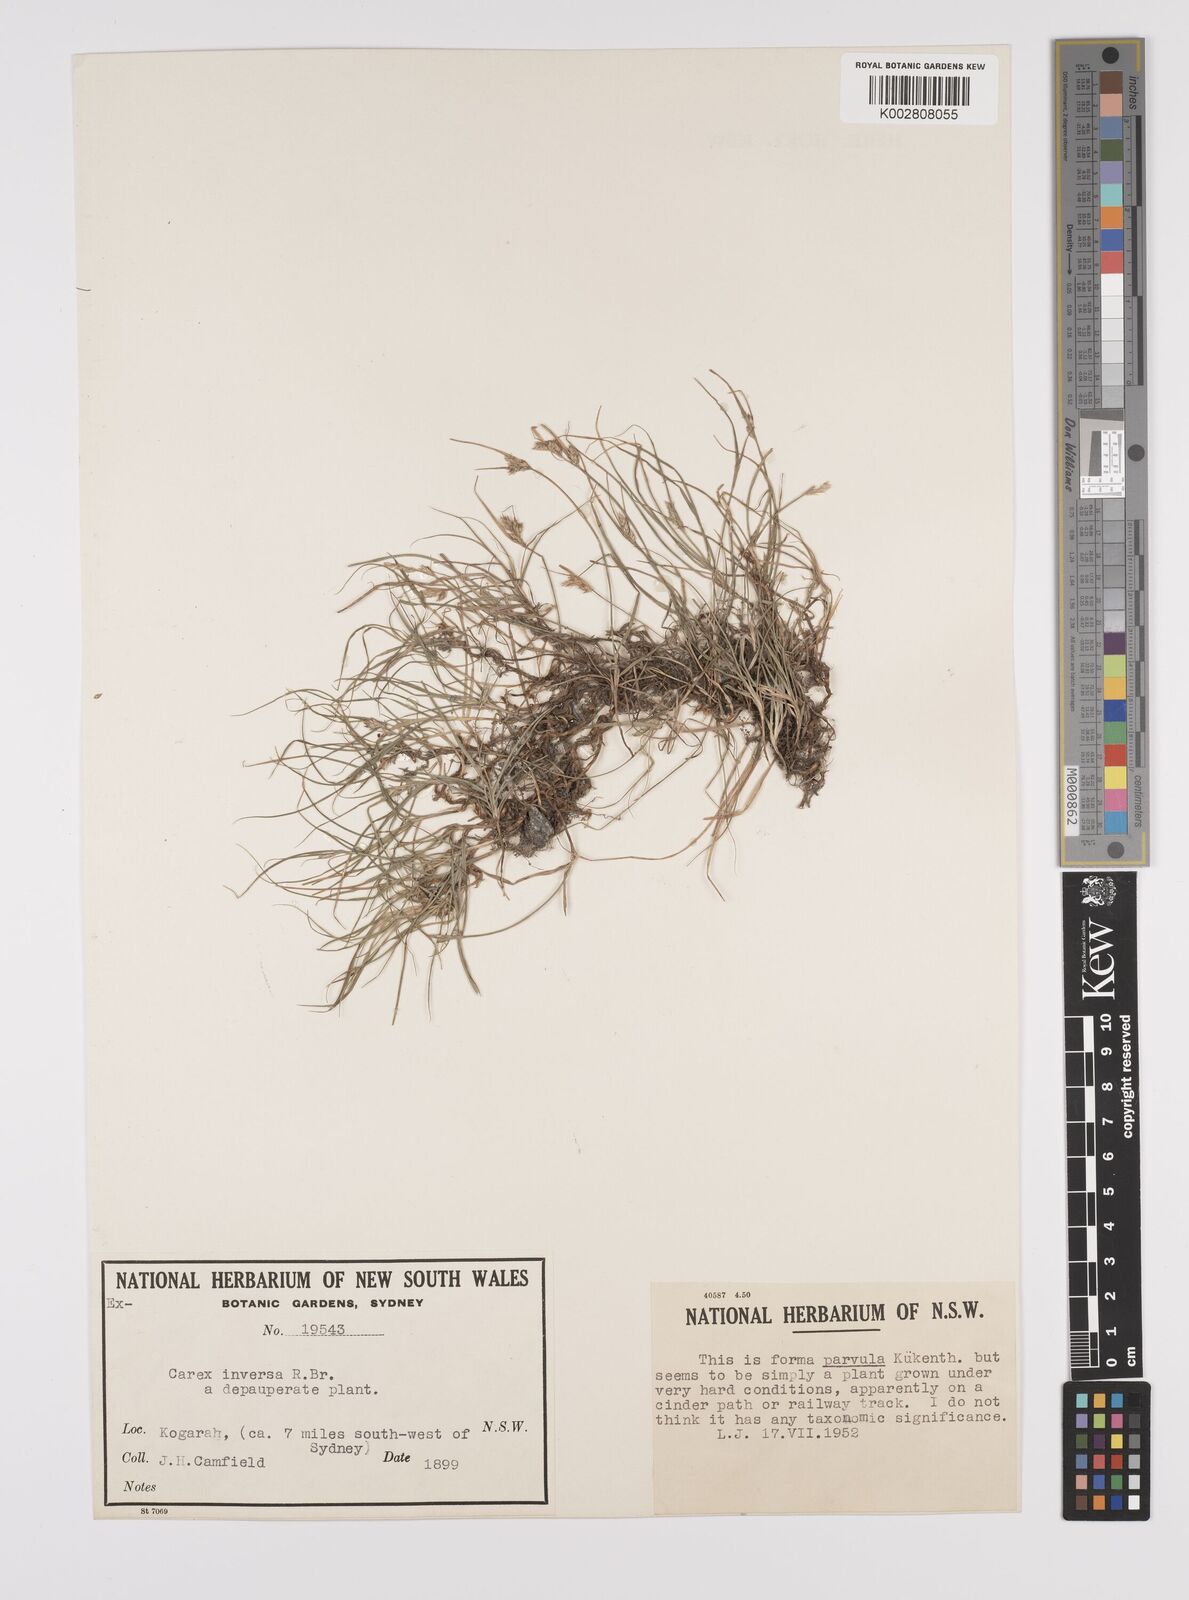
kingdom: Plantae
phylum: Tracheophyta
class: Liliopsida
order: Poales
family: Cyperaceae
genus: Carex
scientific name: Carex inversa
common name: Knob sedge
